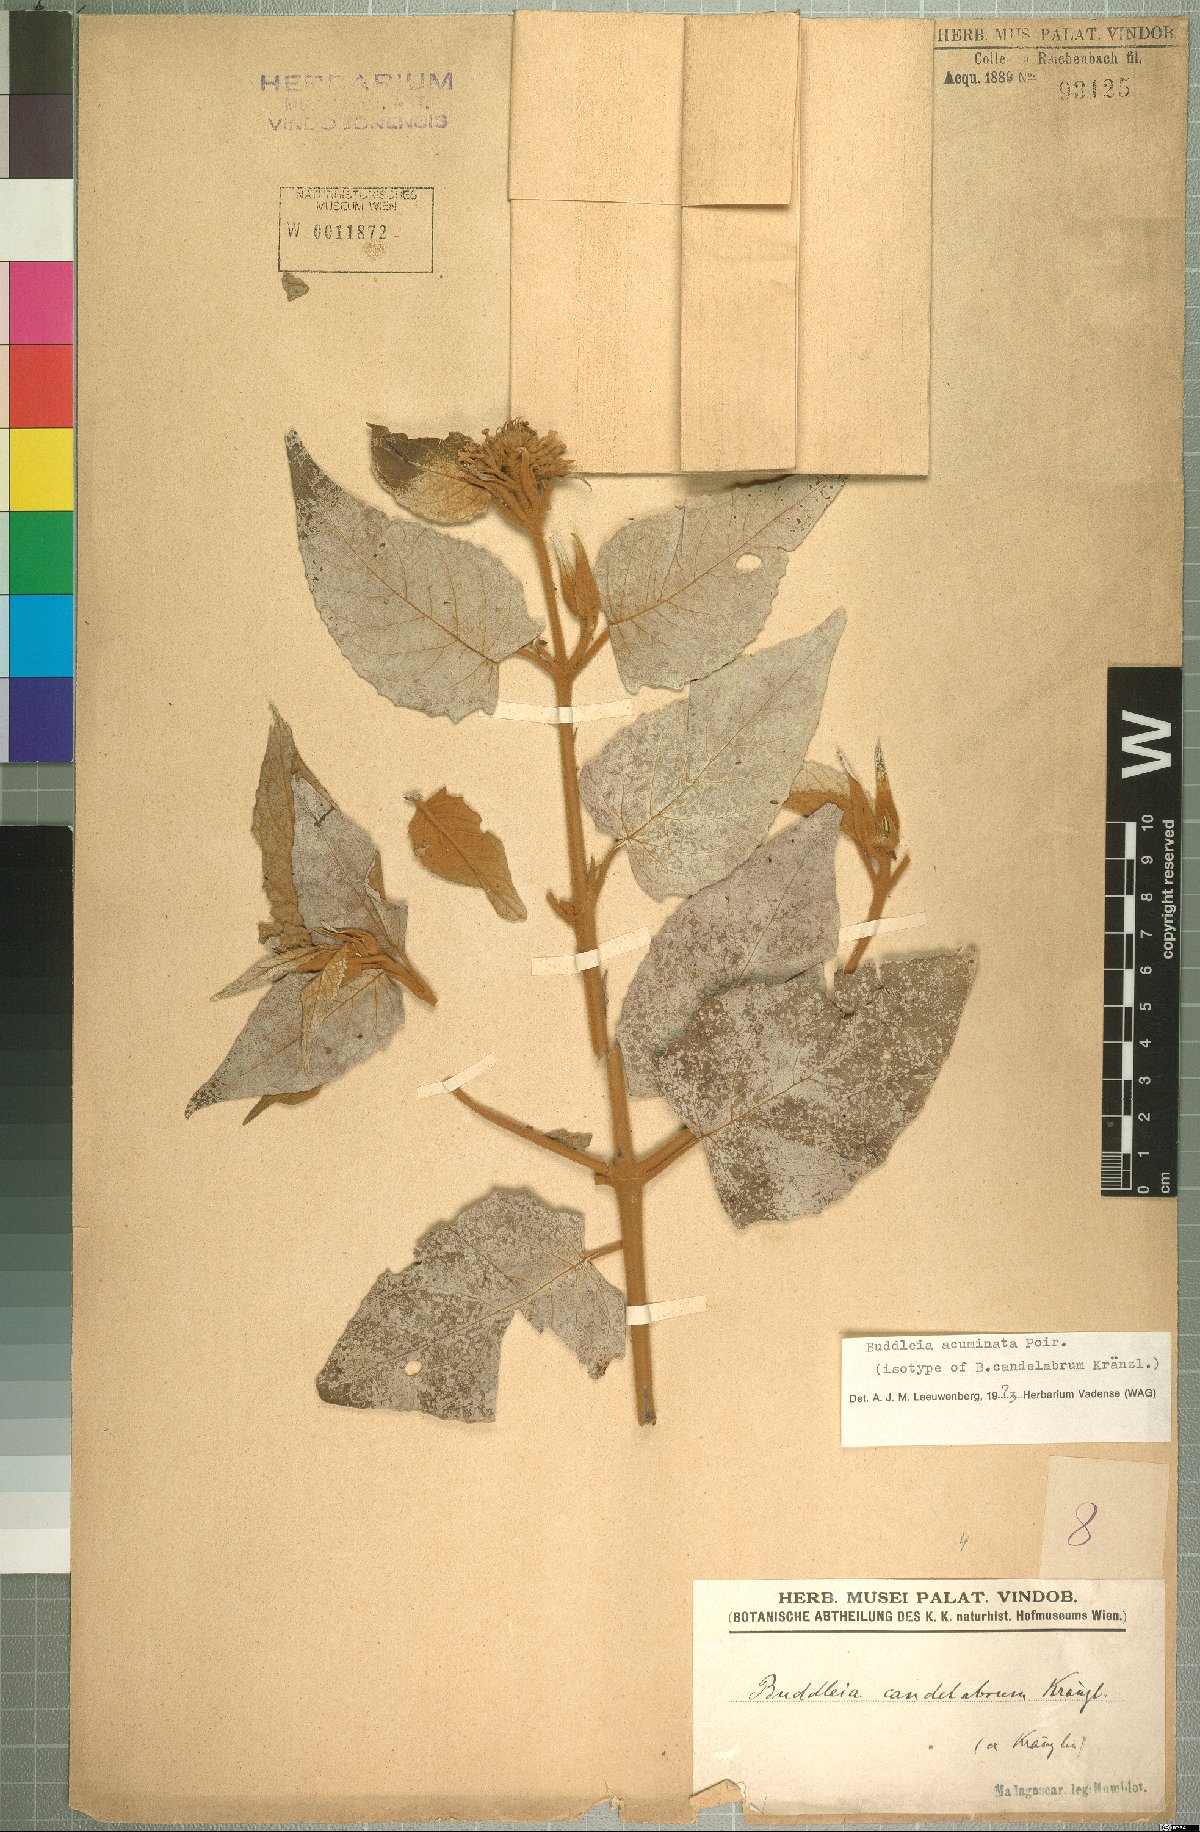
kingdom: Plantae
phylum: Tracheophyta
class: Magnoliopsida
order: Lamiales
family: Scrophulariaceae
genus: Buddleja
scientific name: Buddleja acuminata
